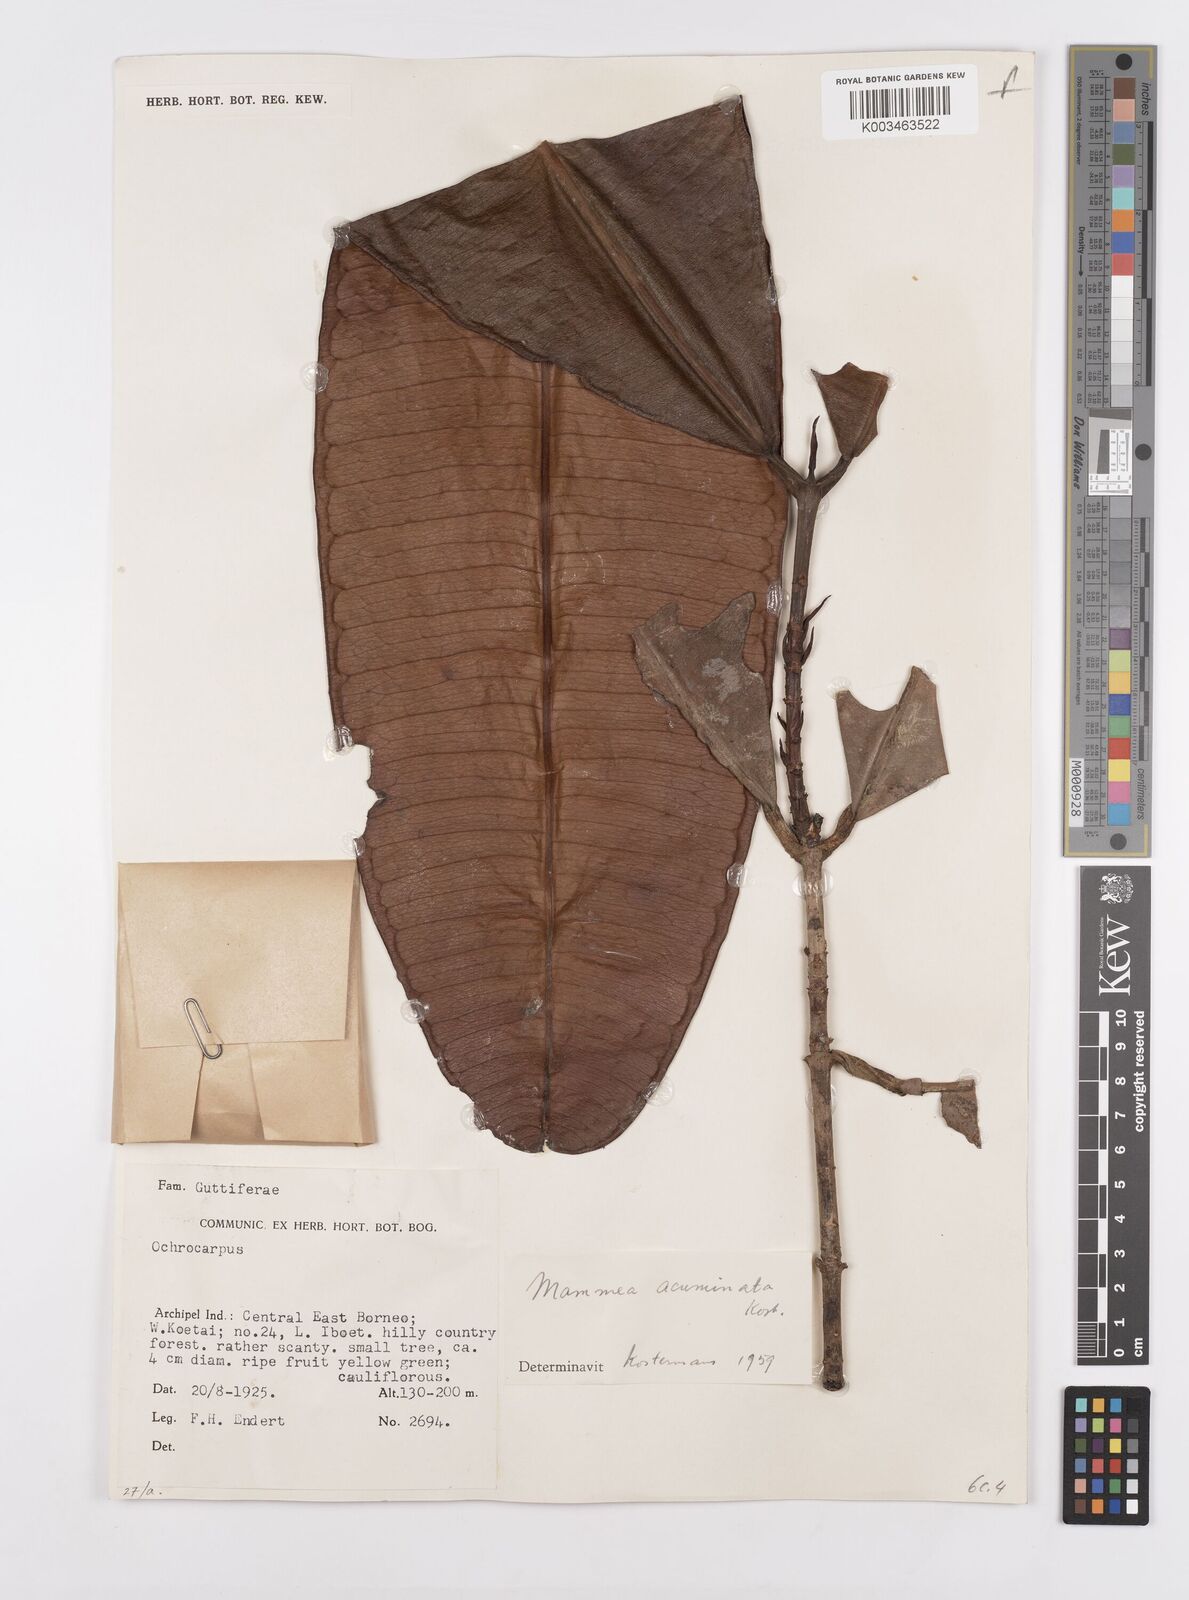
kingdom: Plantae
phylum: Tracheophyta
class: Magnoliopsida
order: Malpighiales
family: Calophyllaceae
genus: Mammea
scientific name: Mammea acuminata
